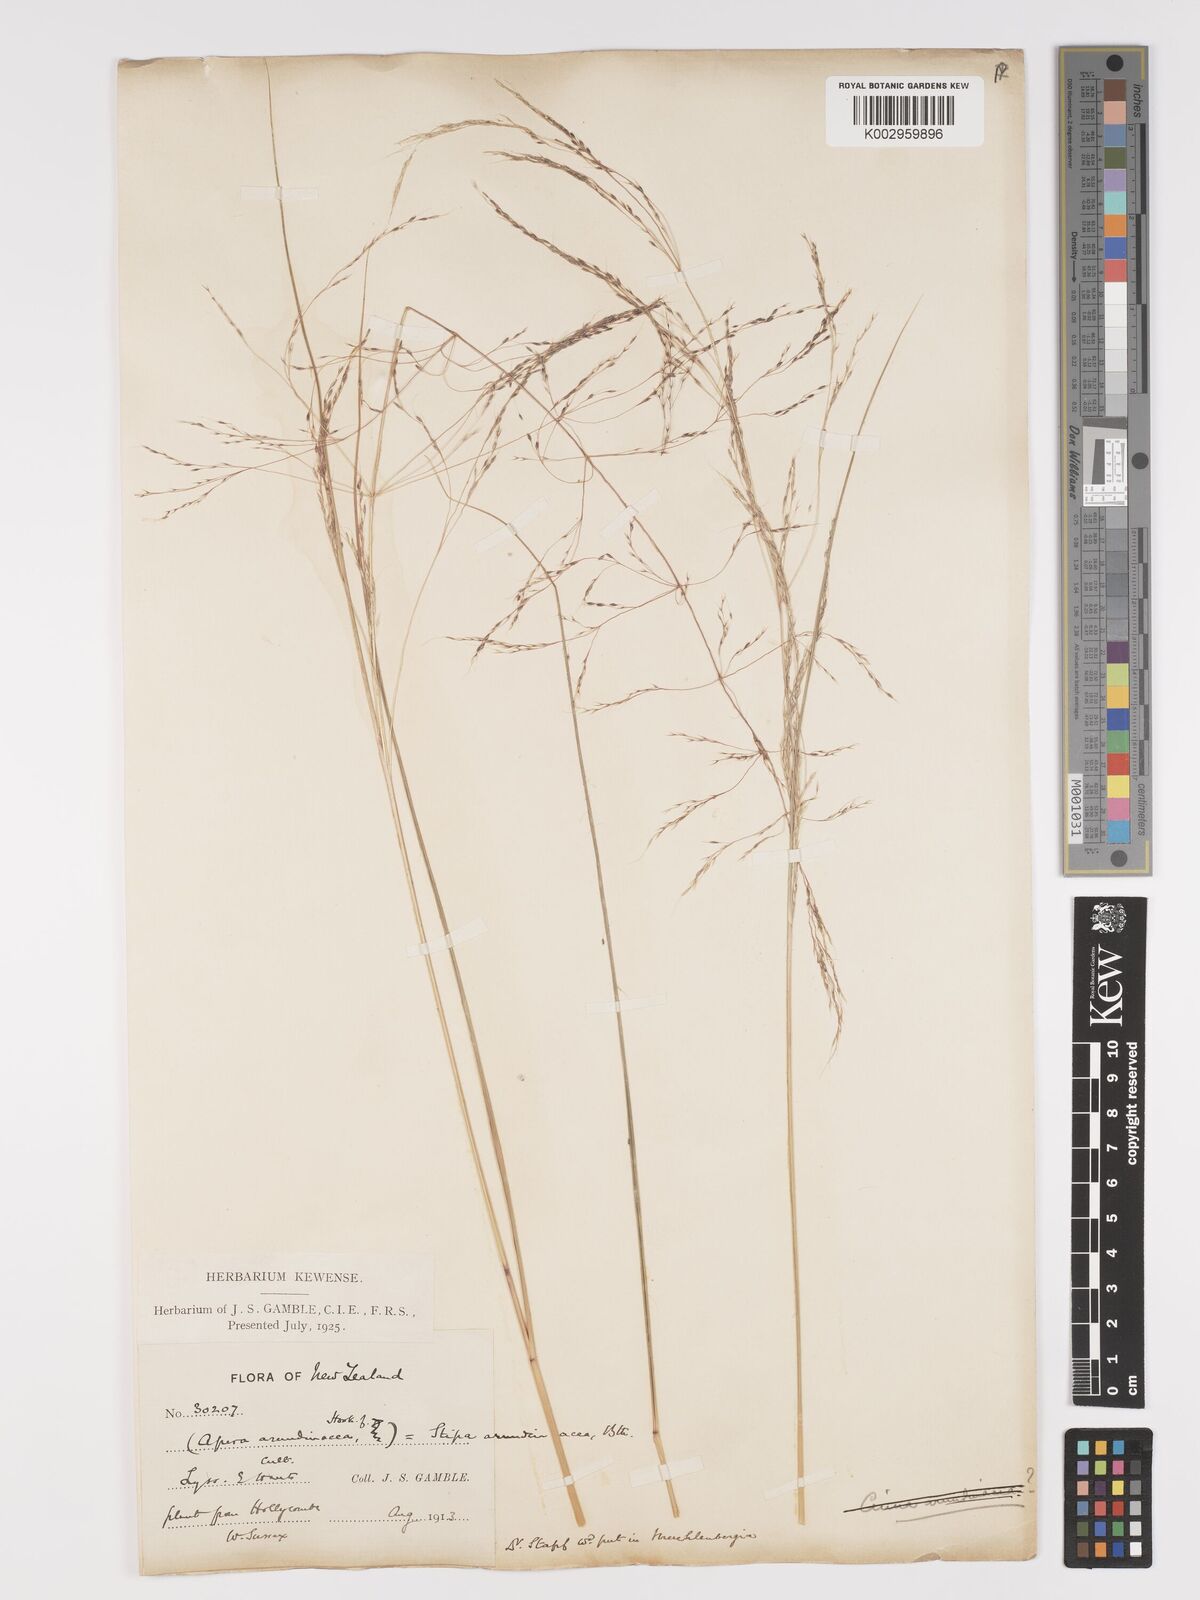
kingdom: Plantae
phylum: Tracheophyta
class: Liliopsida
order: Poales
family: Poaceae
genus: Stipa
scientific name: Stipa
